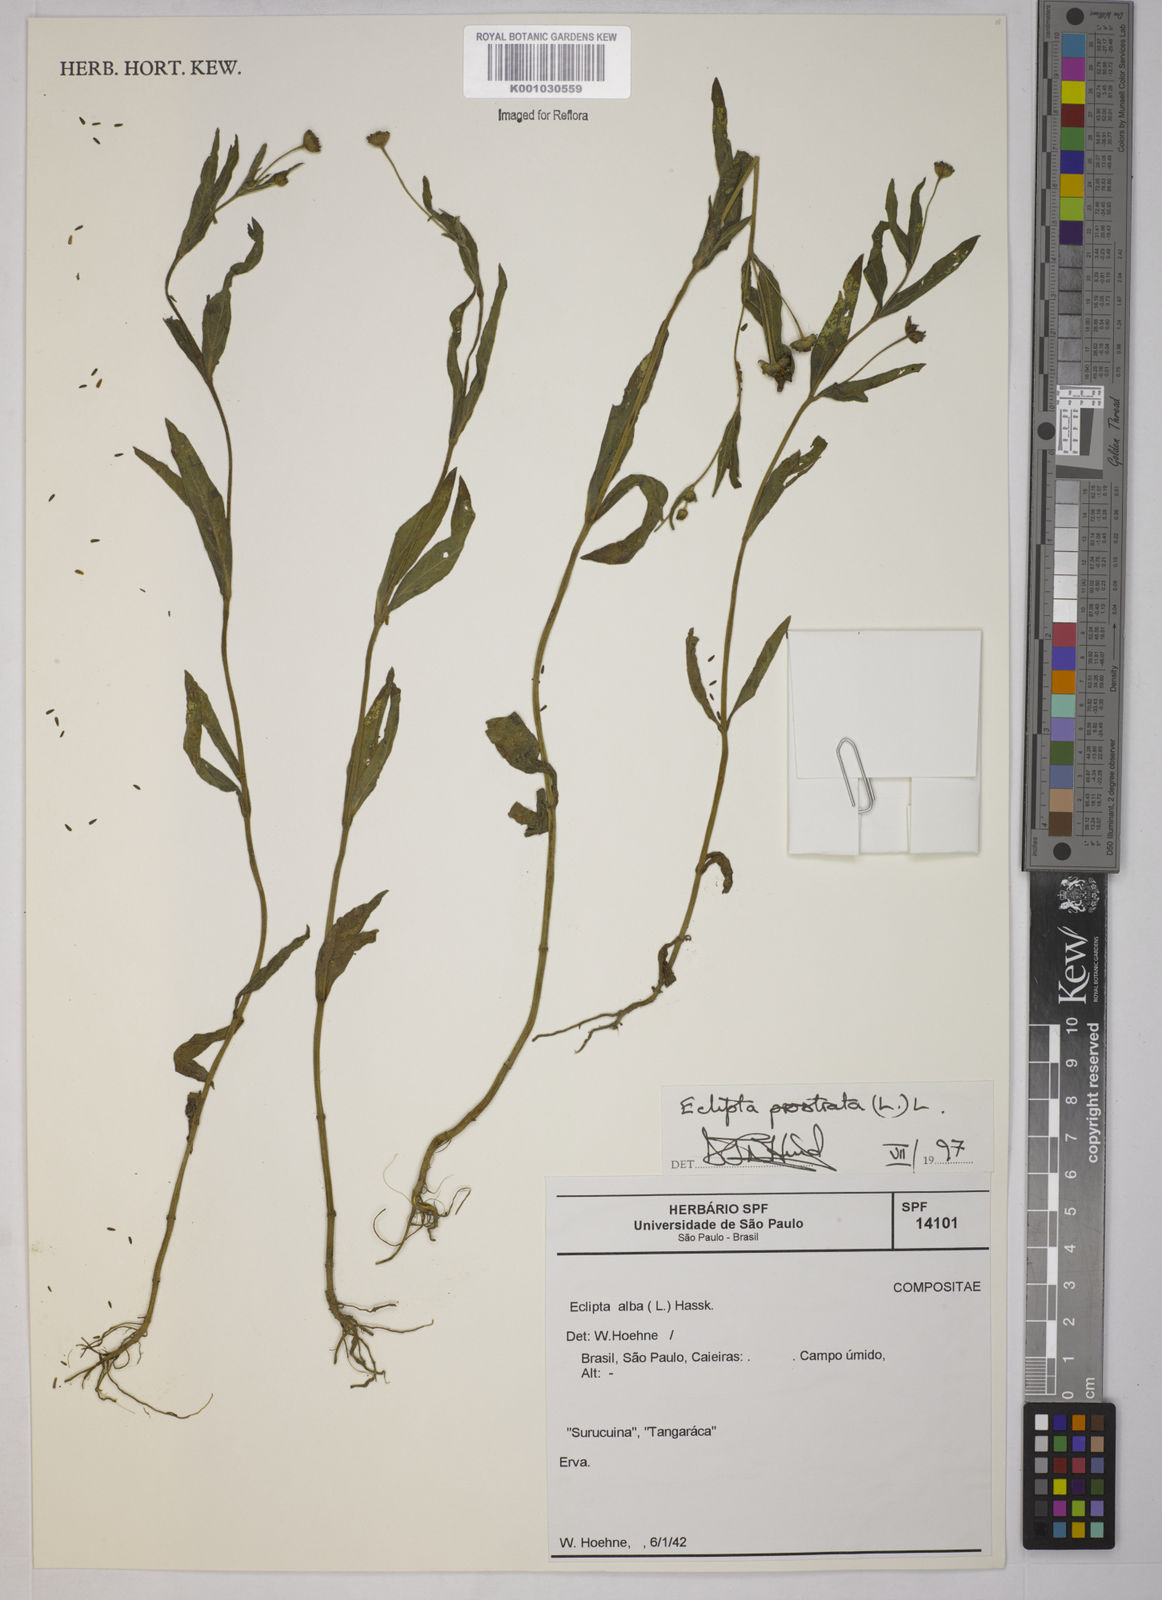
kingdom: Plantae
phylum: Tracheophyta
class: Magnoliopsida
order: Asterales
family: Asteraceae
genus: Eclipta
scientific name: Eclipta prostrata
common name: False daisy
